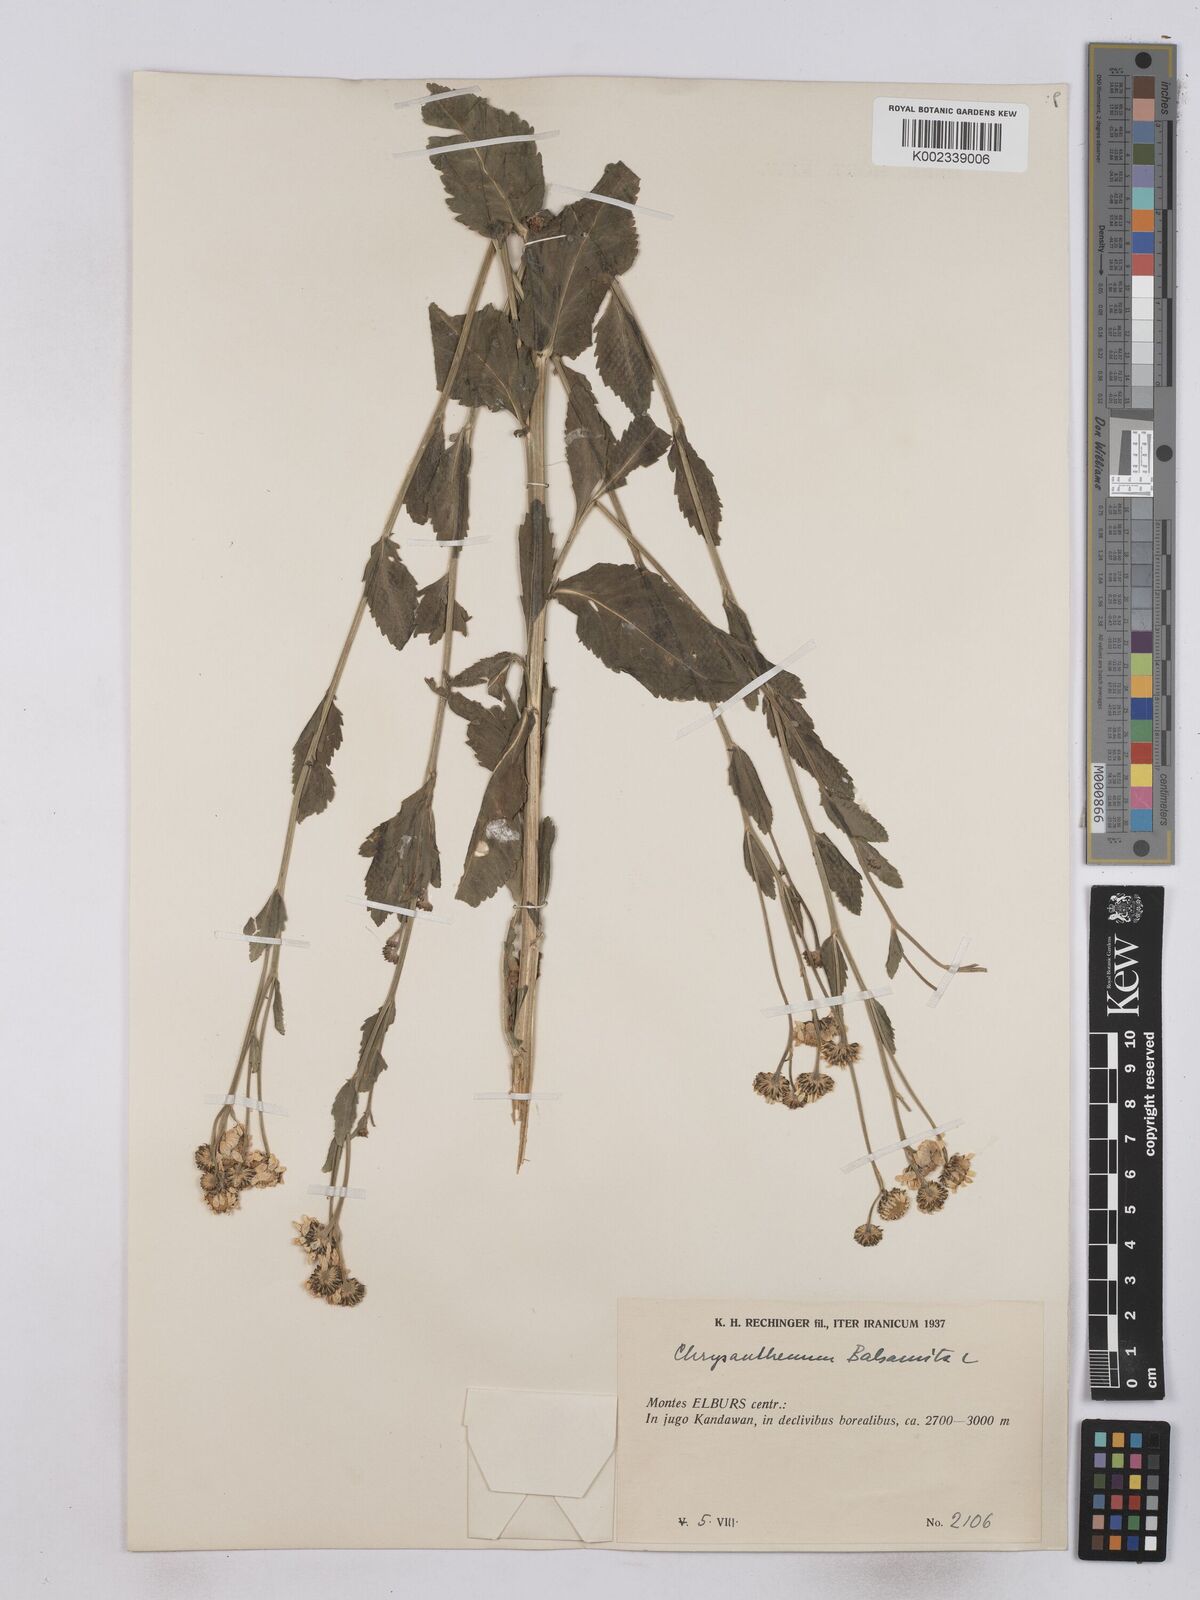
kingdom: Plantae
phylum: Tracheophyta
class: Magnoliopsida
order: Asterales
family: Asteraceae
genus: Tanacetum
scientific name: Tanacetum balsamita
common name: Costmary
